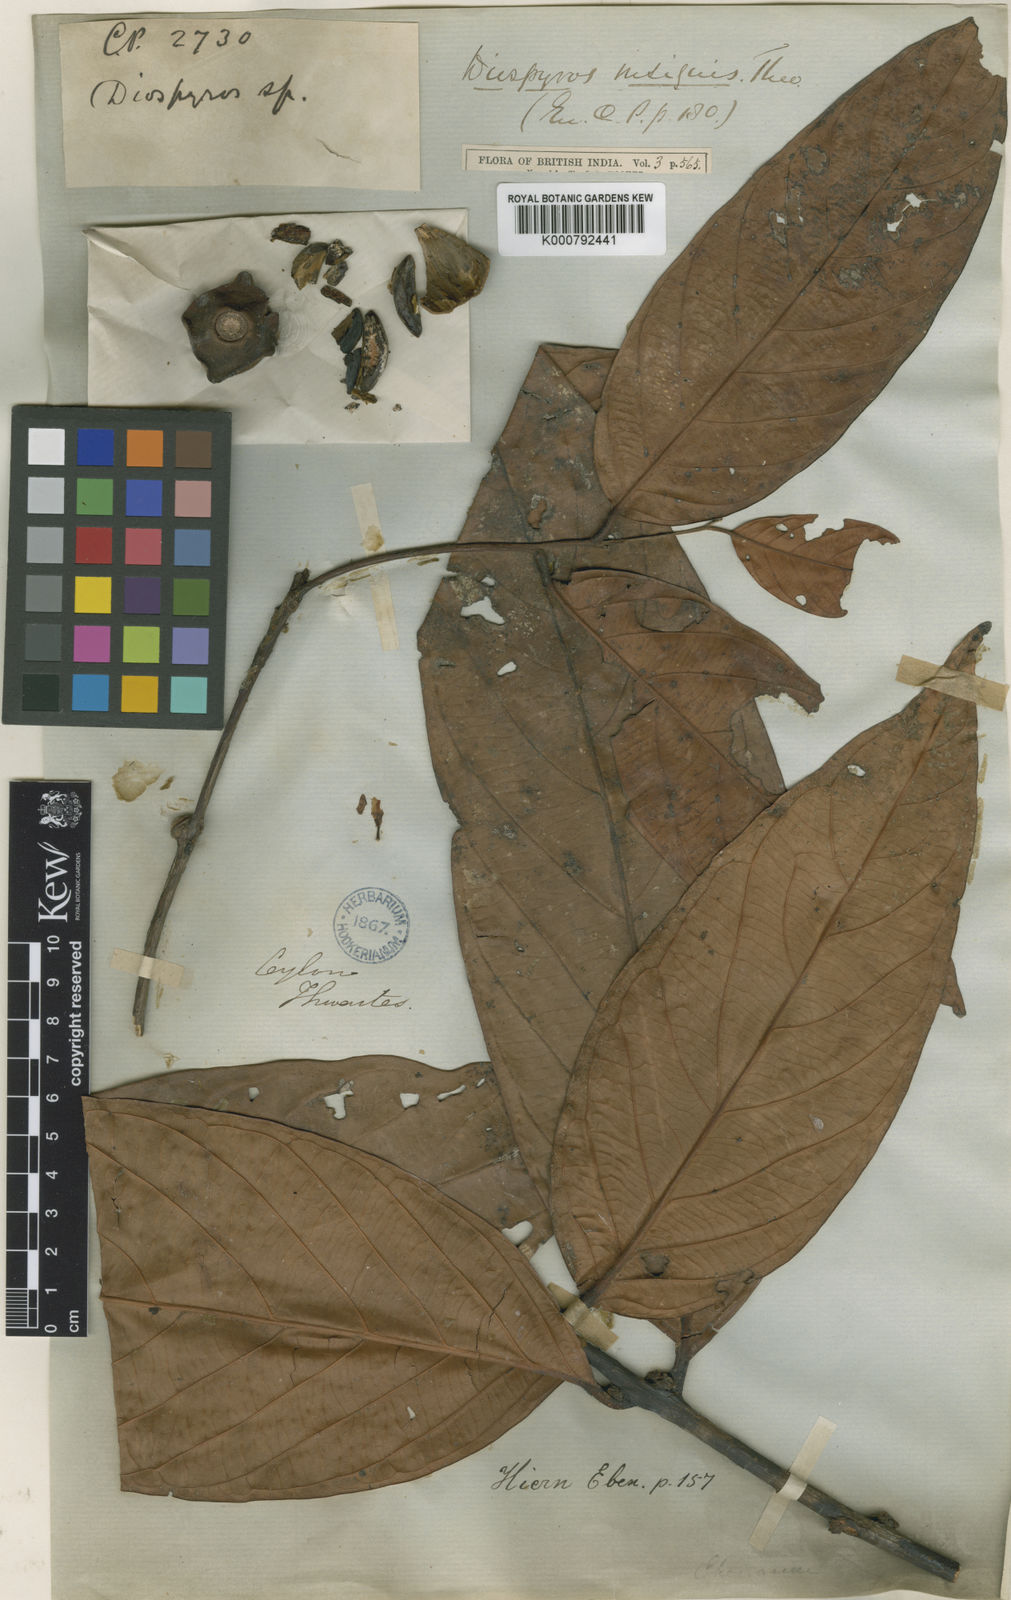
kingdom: Plantae
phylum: Tracheophyta
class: Magnoliopsida
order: Ericales
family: Ebenaceae
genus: Diospyros
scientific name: Diospyros insignis
